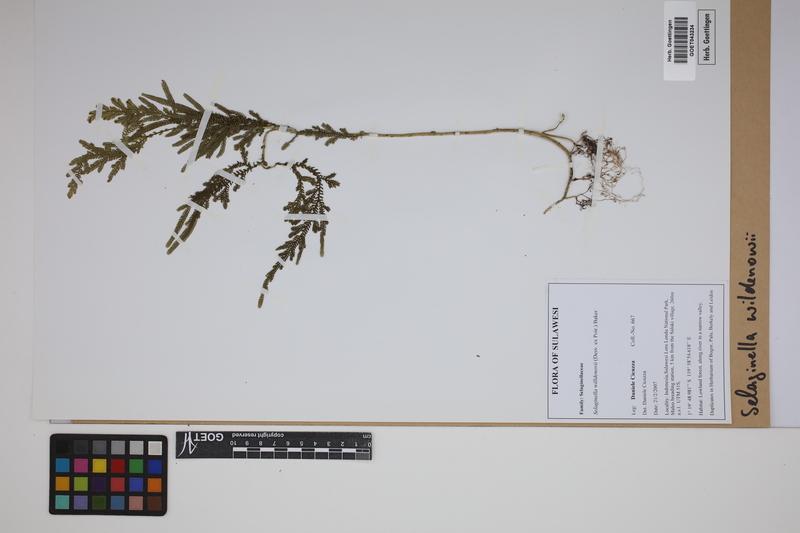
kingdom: Plantae
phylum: Tracheophyta
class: Lycopodiopsida
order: Selaginellales
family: Selaginellaceae
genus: Selaginella
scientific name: Selaginella willdenowii
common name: Willdenow's spikemoss
